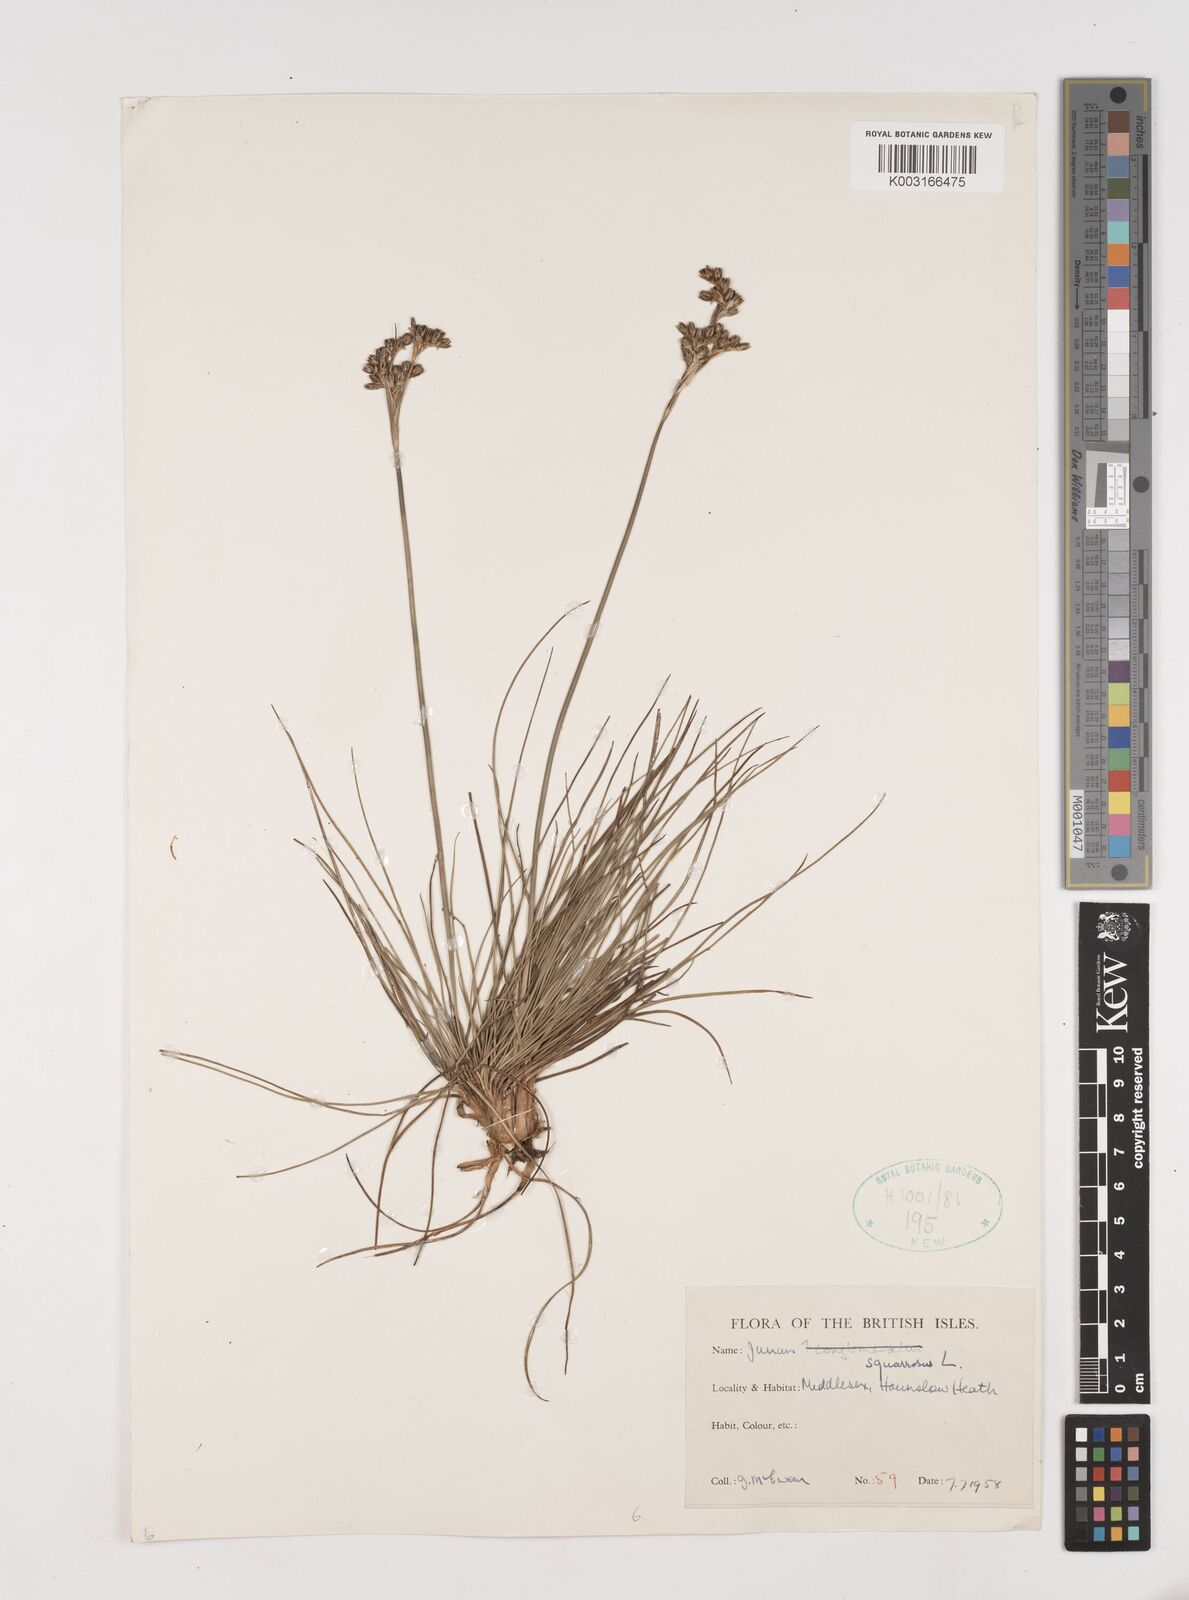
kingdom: Plantae
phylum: Tracheophyta
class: Liliopsida
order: Poales
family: Juncaceae
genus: Juncus
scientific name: Juncus squarrosus
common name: Heath rush
